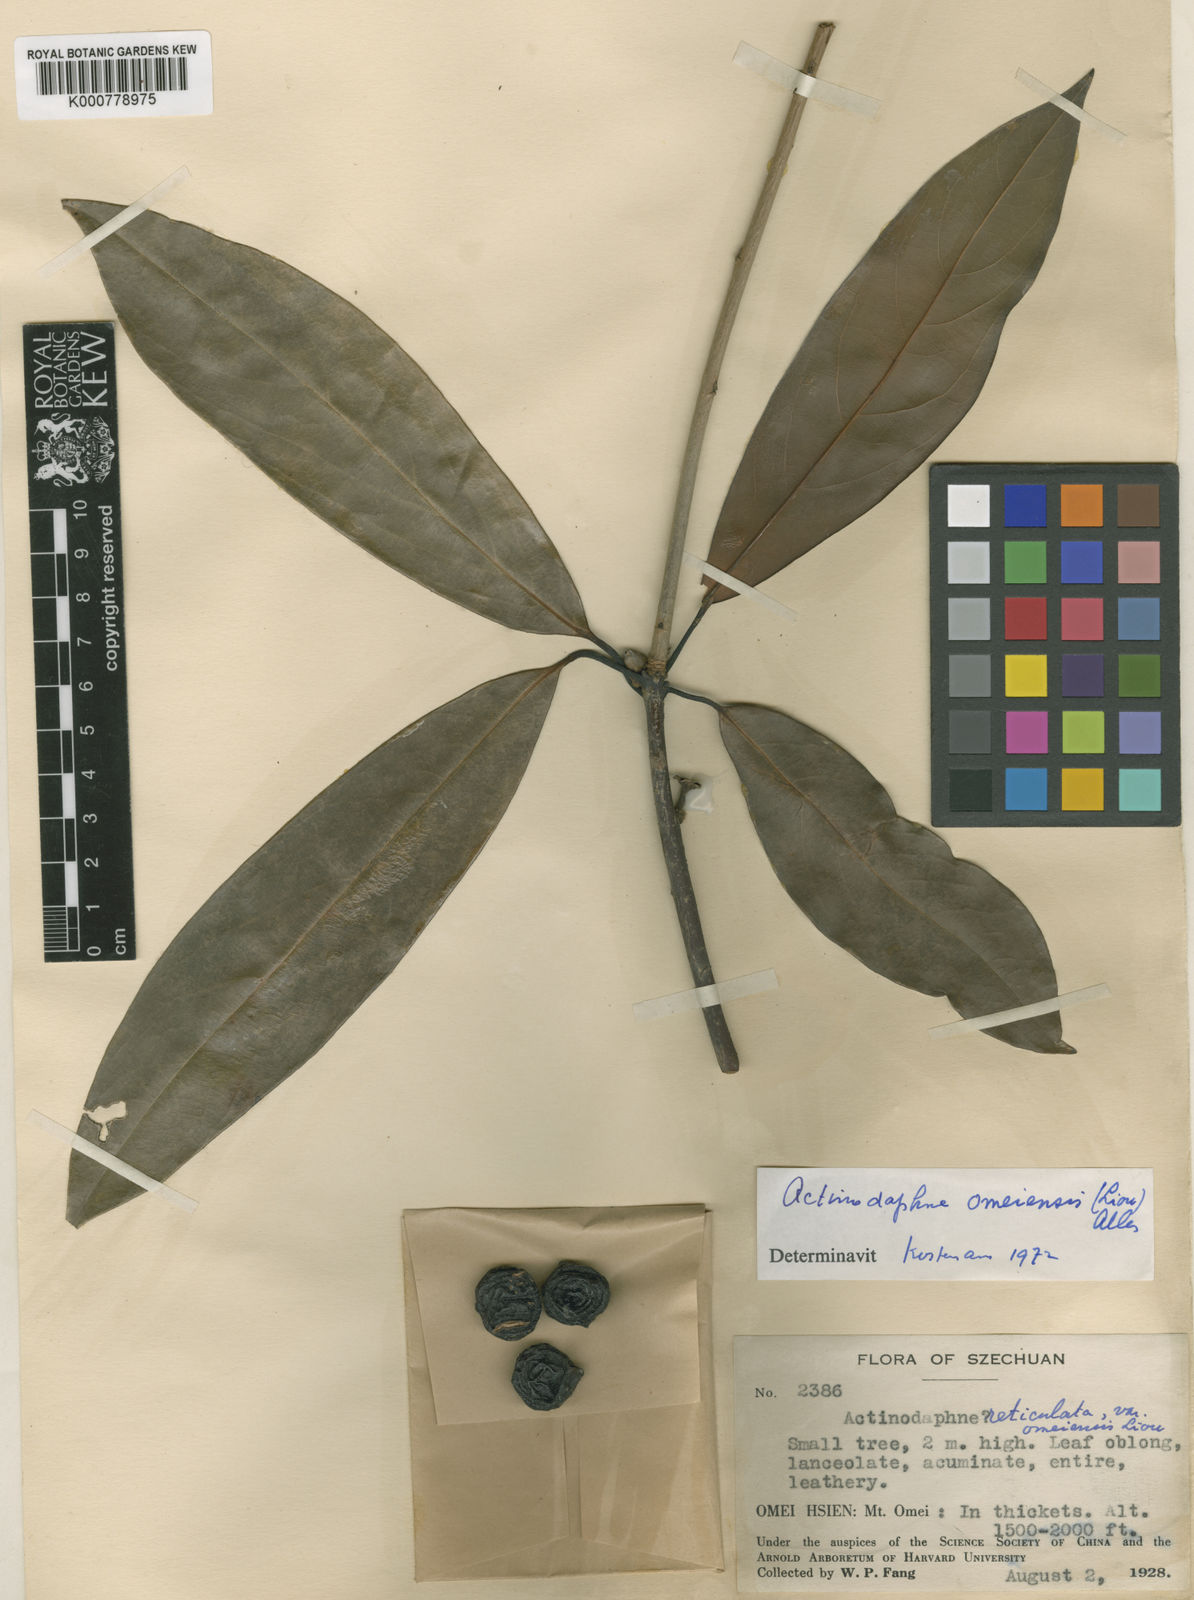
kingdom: Plantae
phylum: Tracheophyta
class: Magnoliopsida
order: Laurales
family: Lauraceae
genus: Actinodaphne
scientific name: Actinodaphne omeiensis
